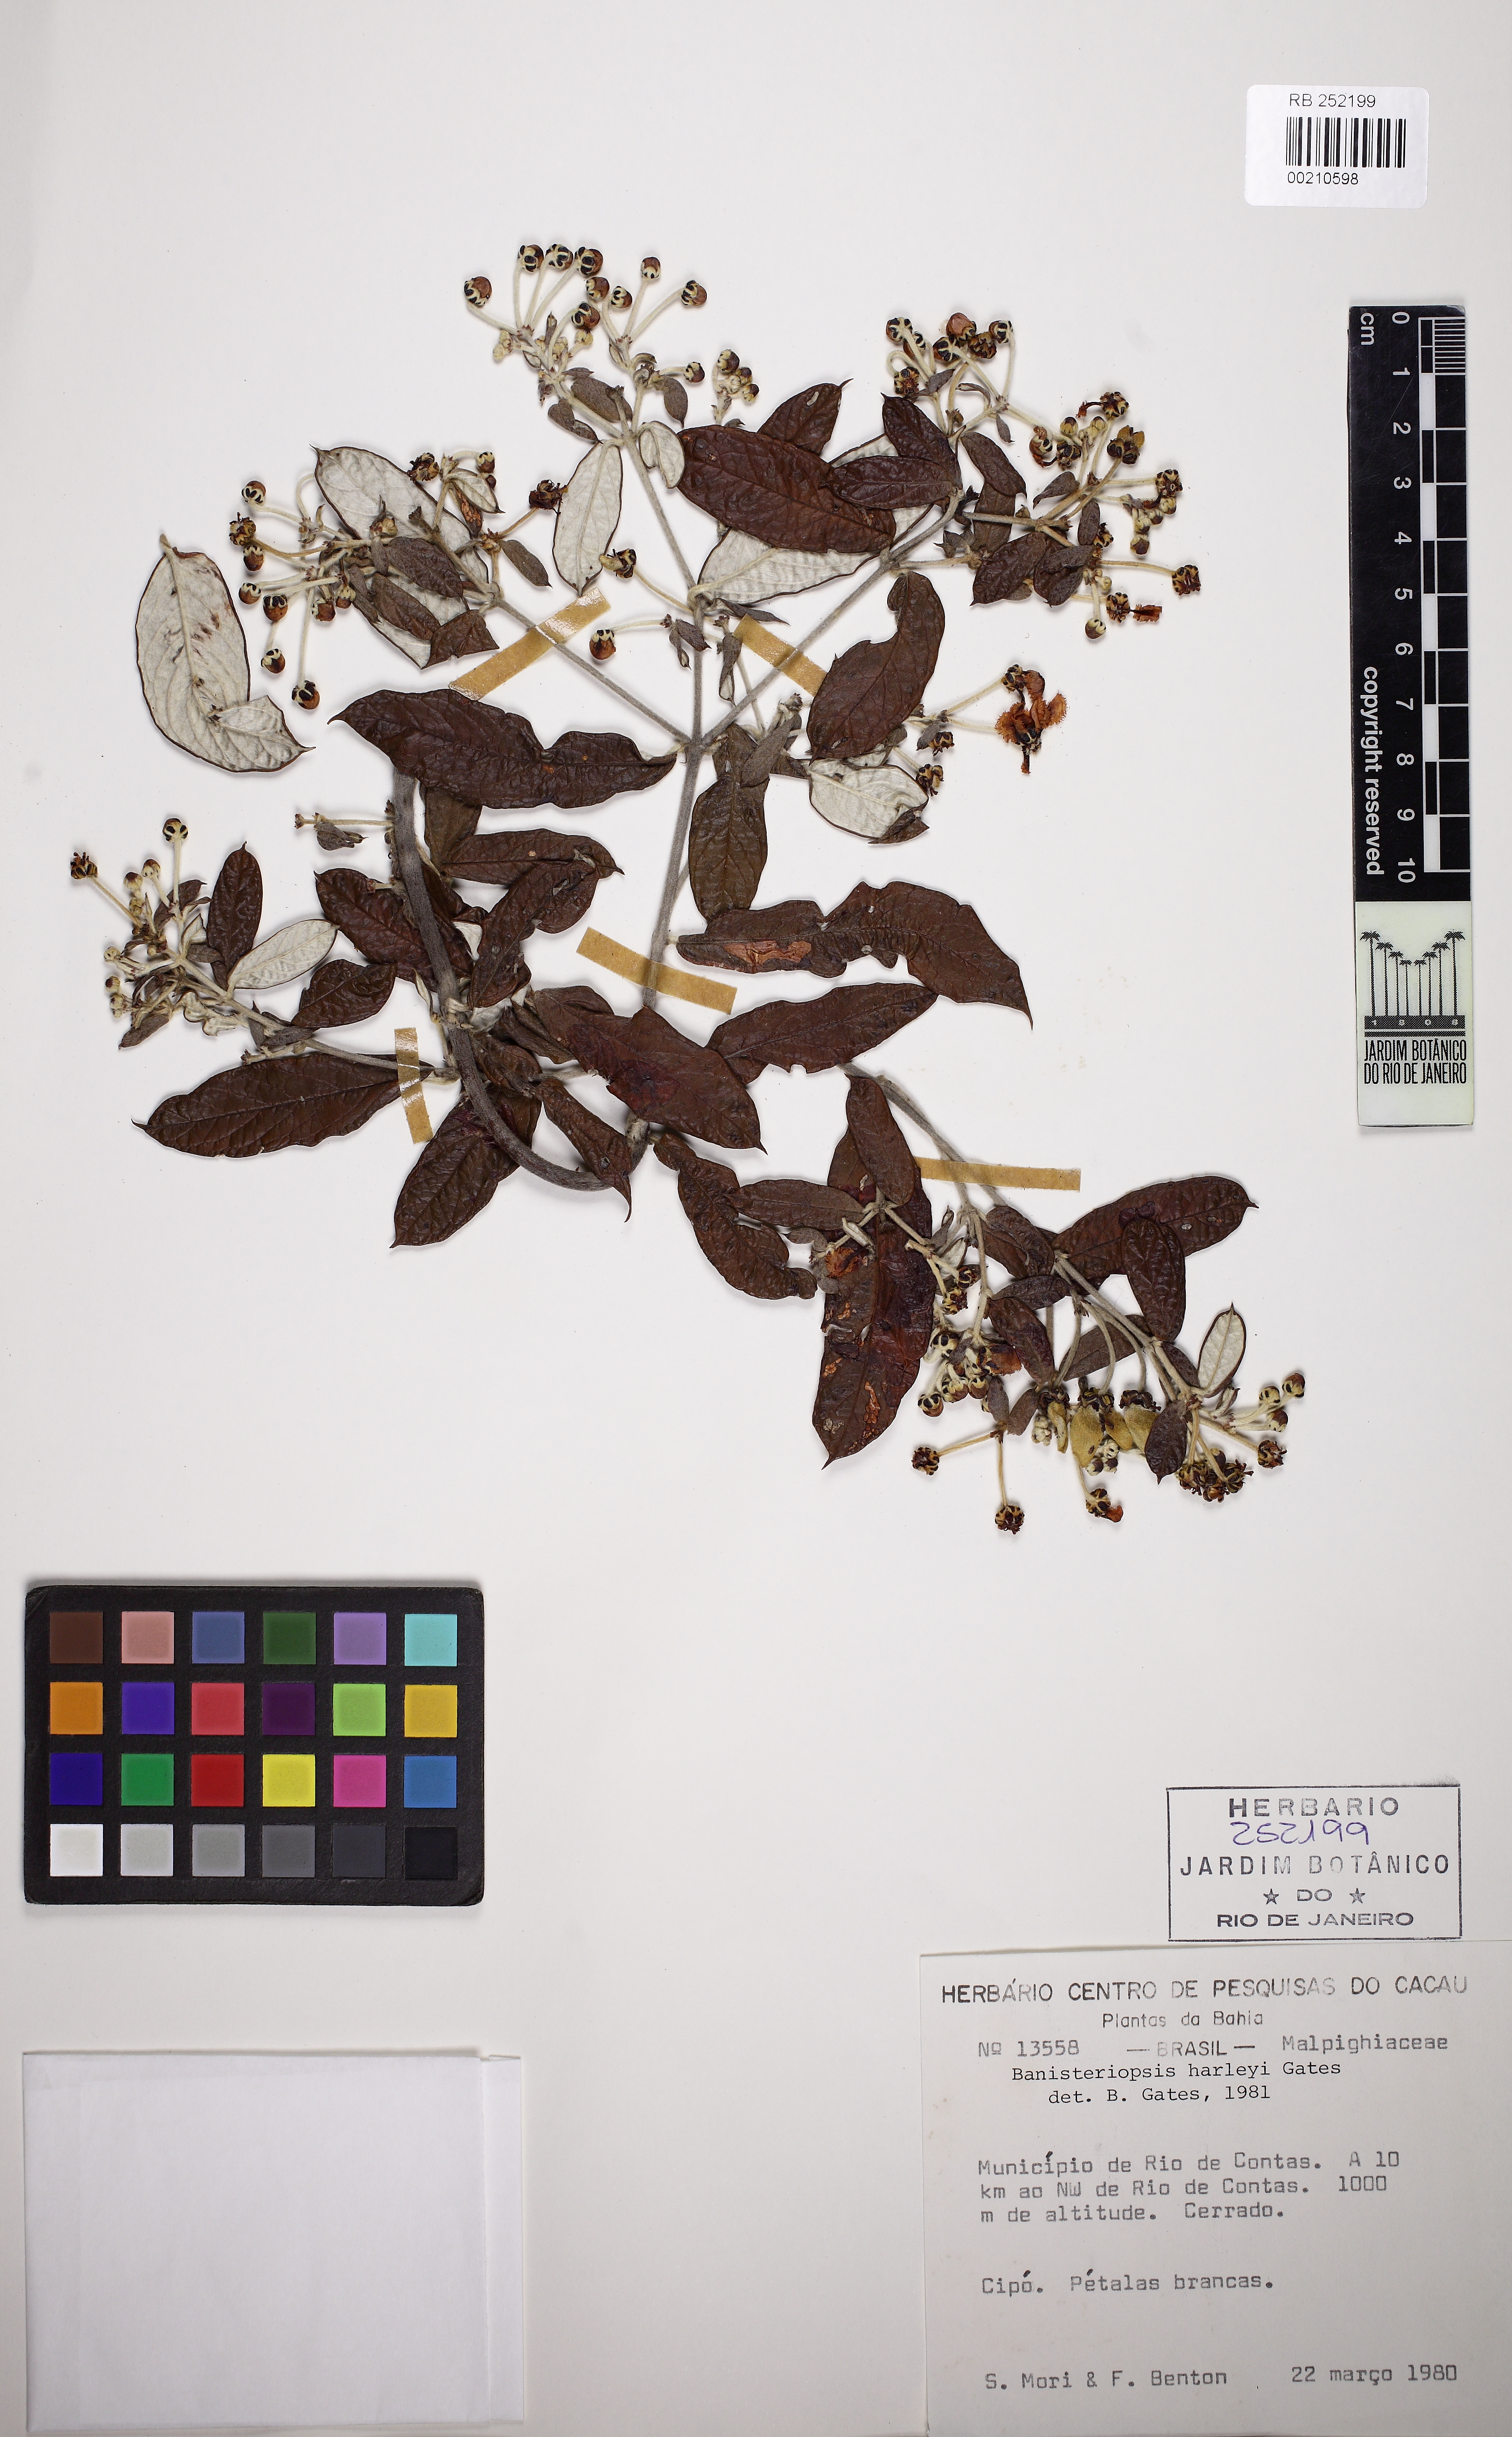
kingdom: Plantae
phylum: Tracheophyta
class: Magnoliopsida
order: Malpighiales
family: Malpighiaceae
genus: Banisteriopsis
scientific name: Banisteriopsis harleyi
